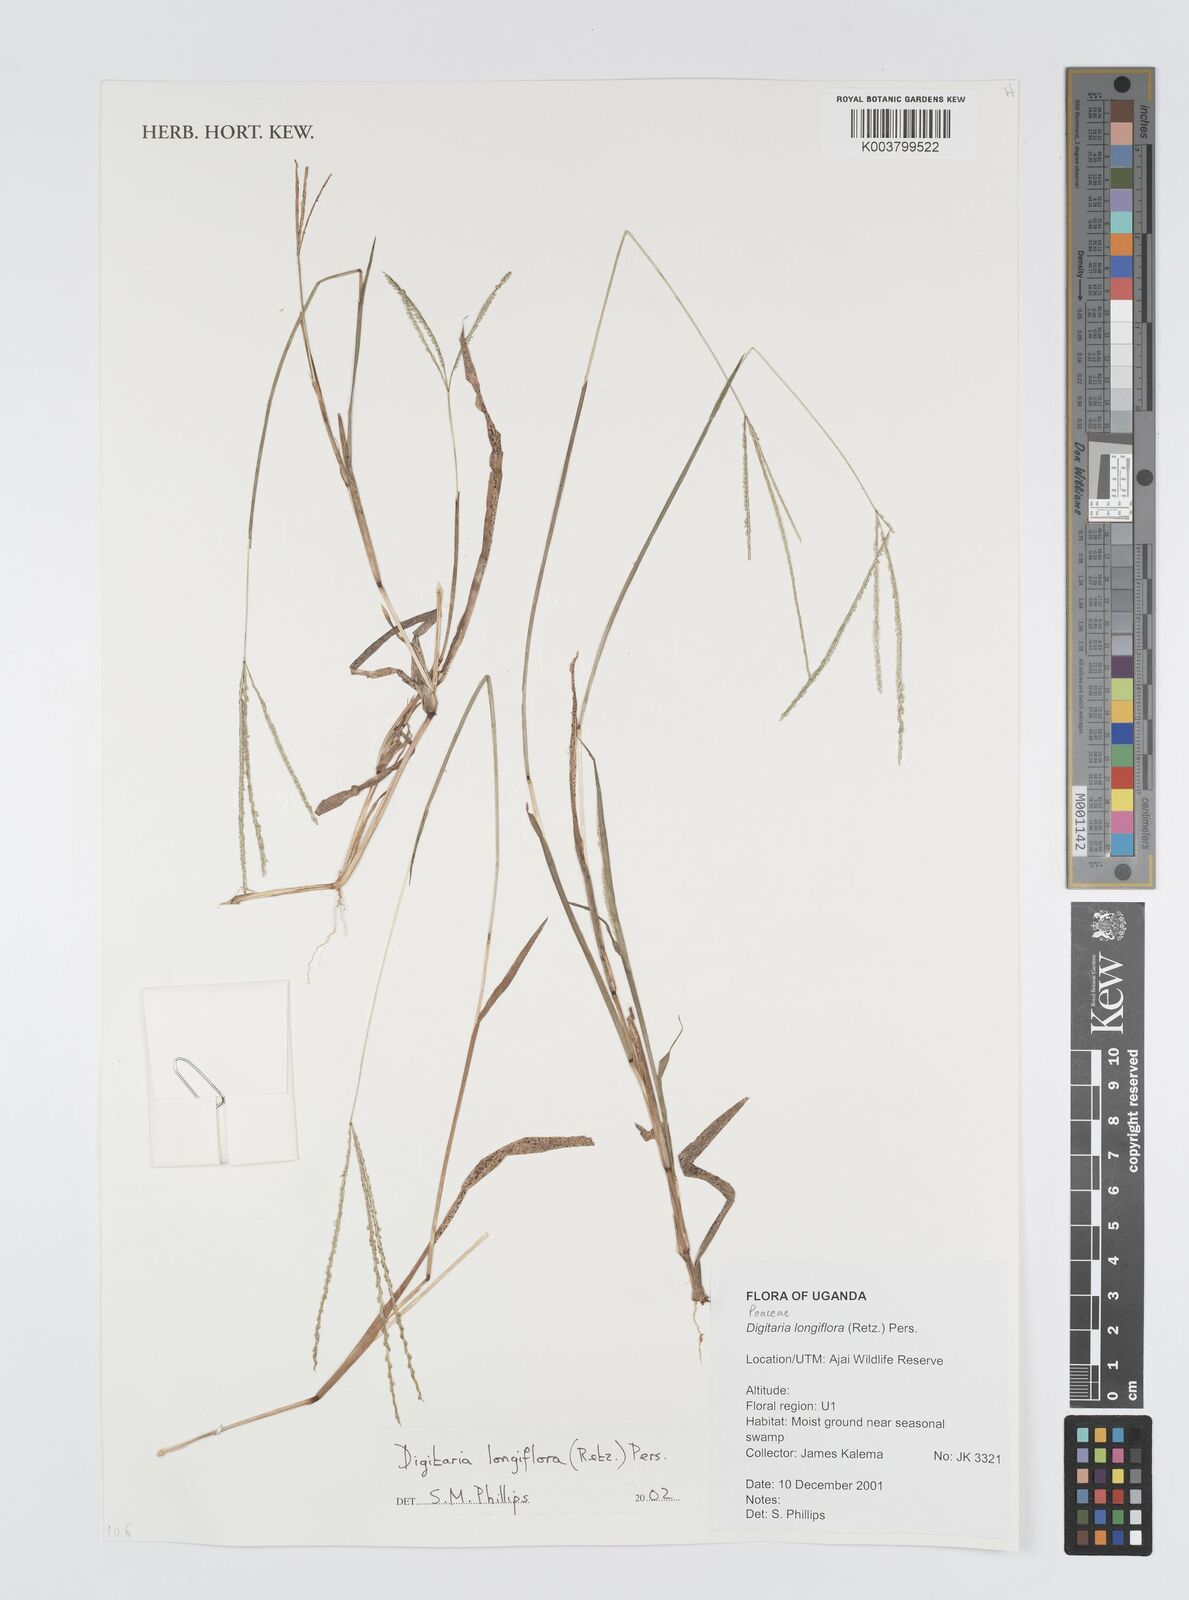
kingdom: Plantae
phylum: Tracheophyta
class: Liliopsida
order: Poales
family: Poaceae
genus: Digitaria
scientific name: Digitaria longiflora
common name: Wire crabgrass
